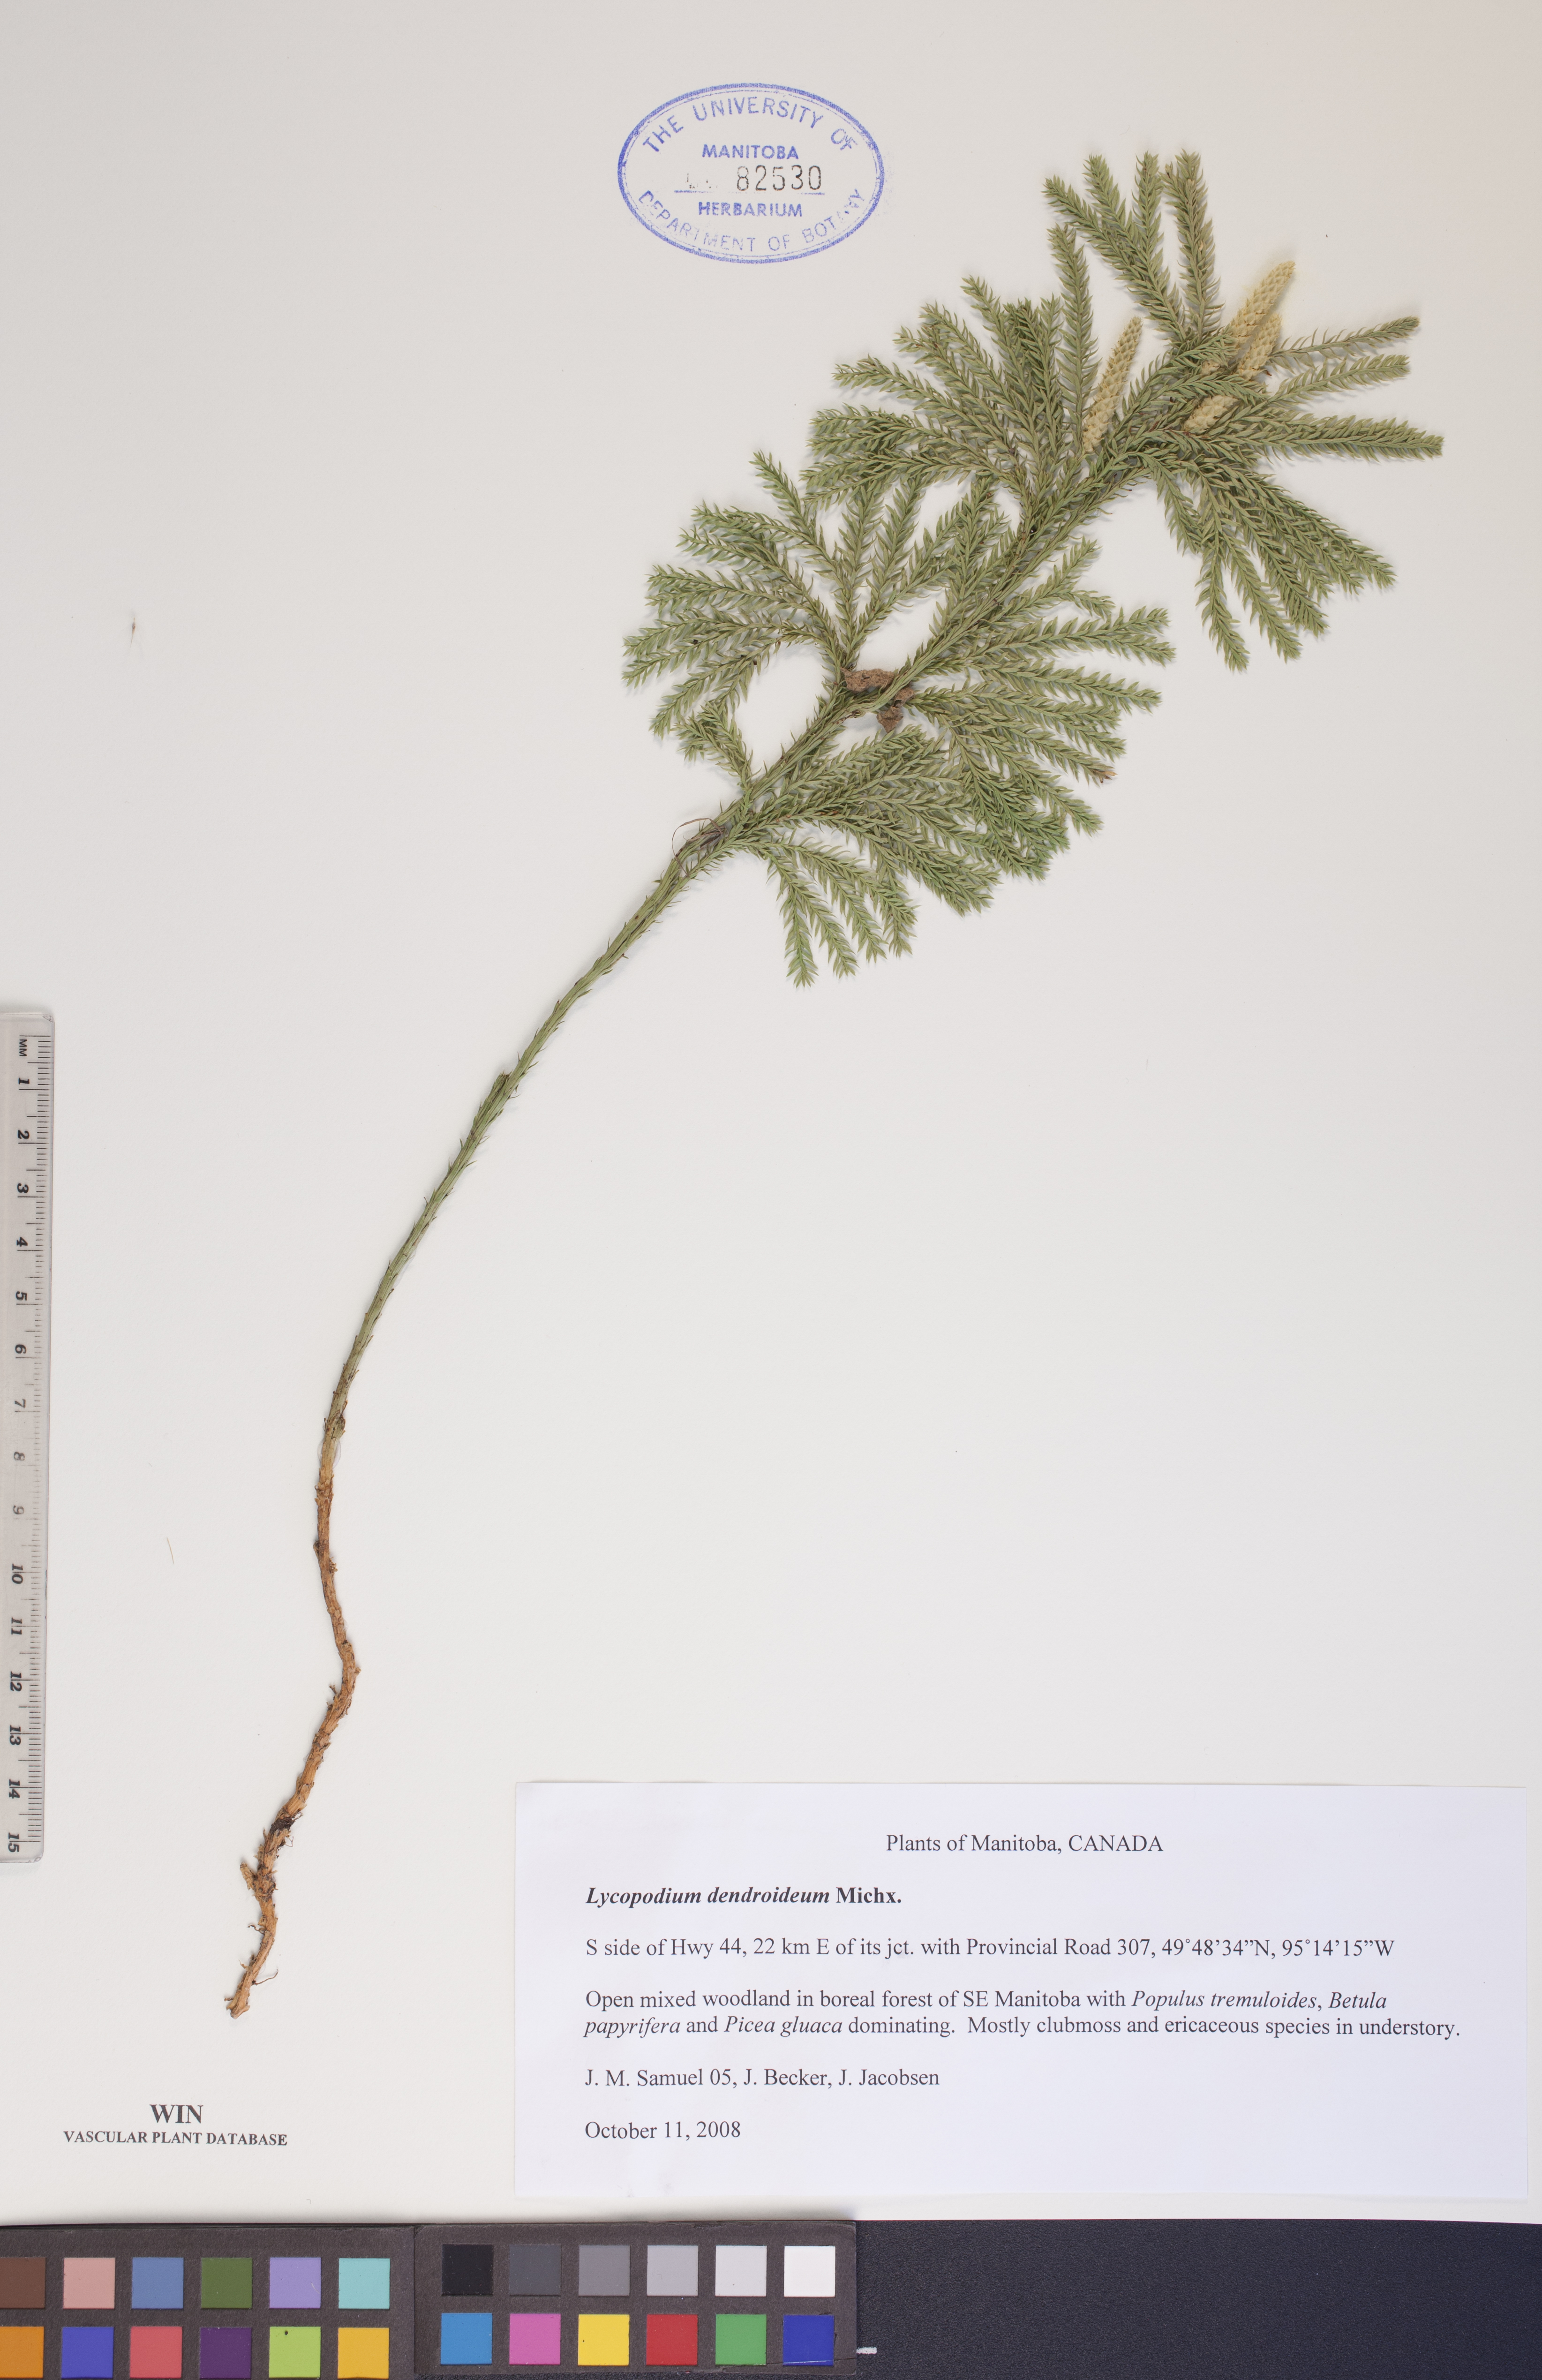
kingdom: Plantae
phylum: Tracheophyta
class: Lycopodiopsida
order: Lycopodiales
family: Lycopodiaceae
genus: Dendrolycopodium
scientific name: Dendrolycopodium dendroideum
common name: Northern tree-clubmoss
